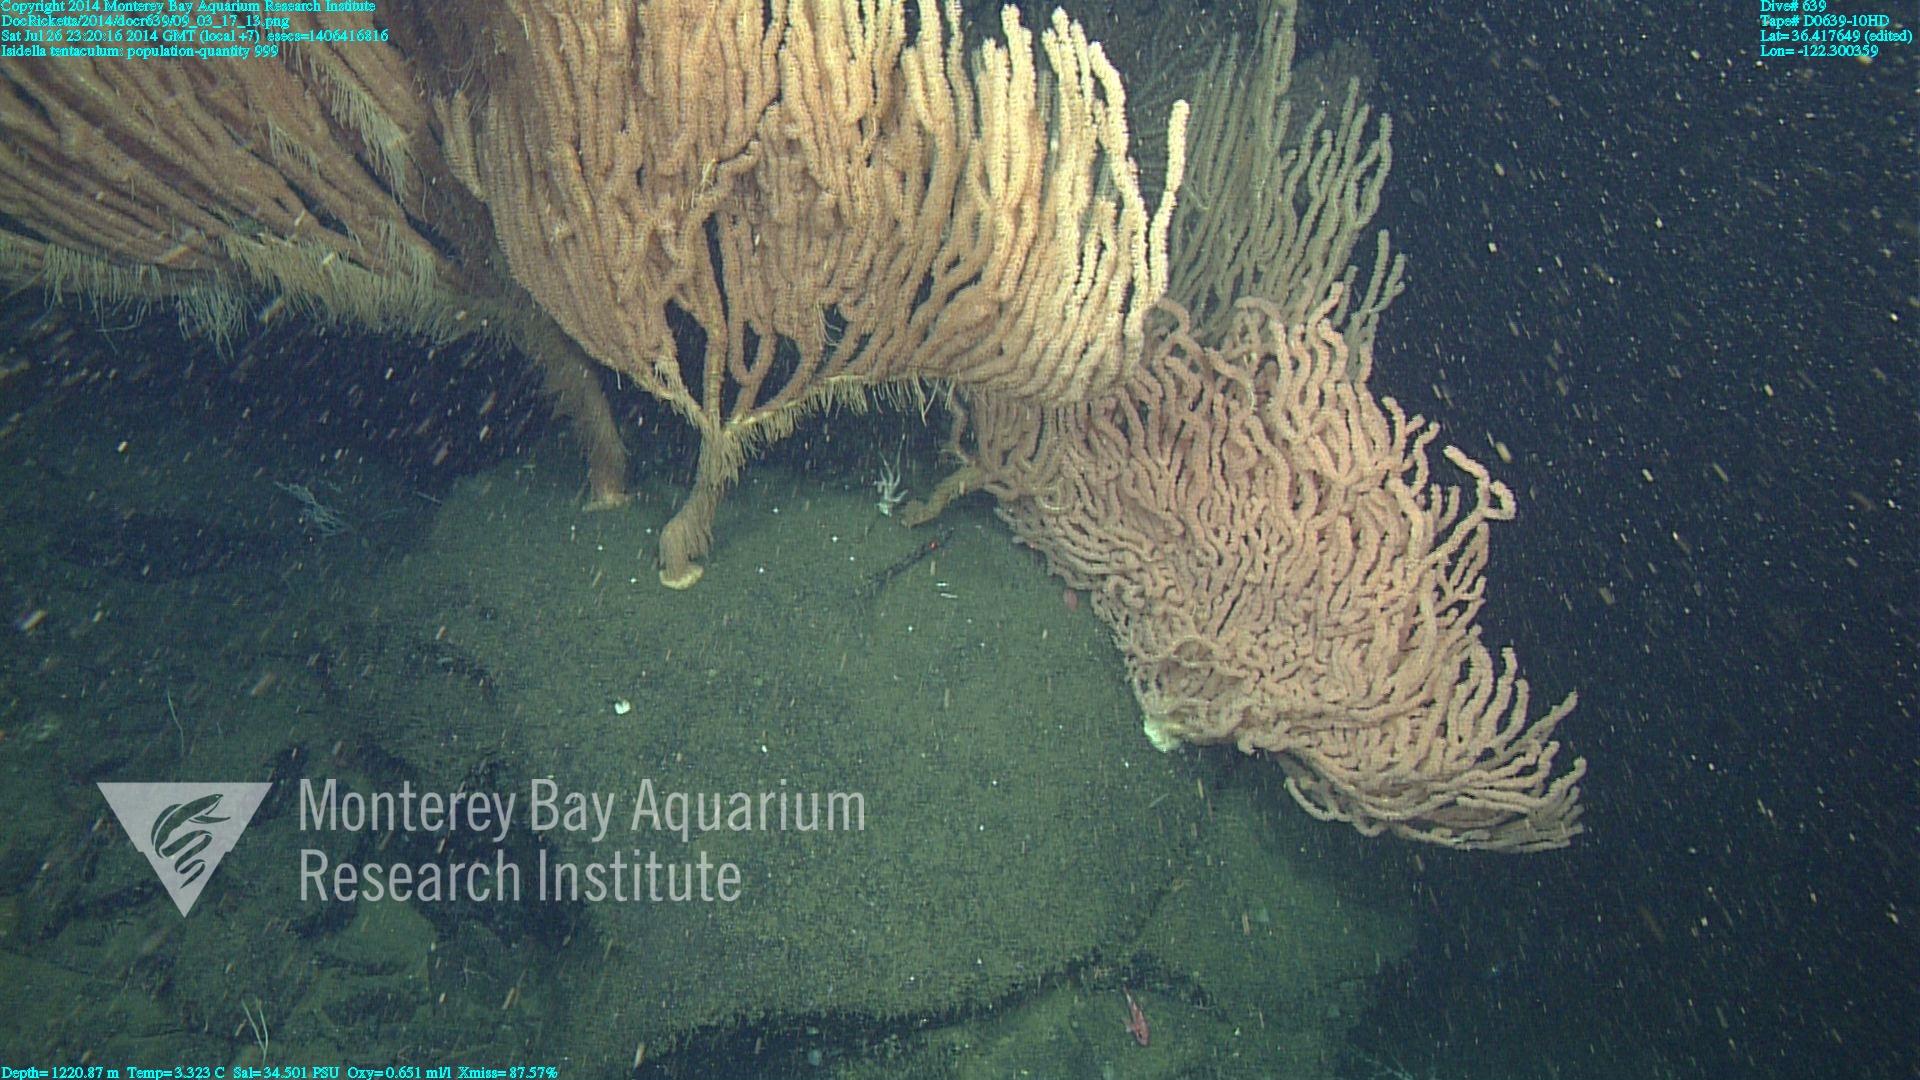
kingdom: Animalia
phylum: Cnidaria
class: Anthozoa
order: Scleralcyonacea
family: Keratoisididae
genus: Isidella
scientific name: Isidella tentaculum
